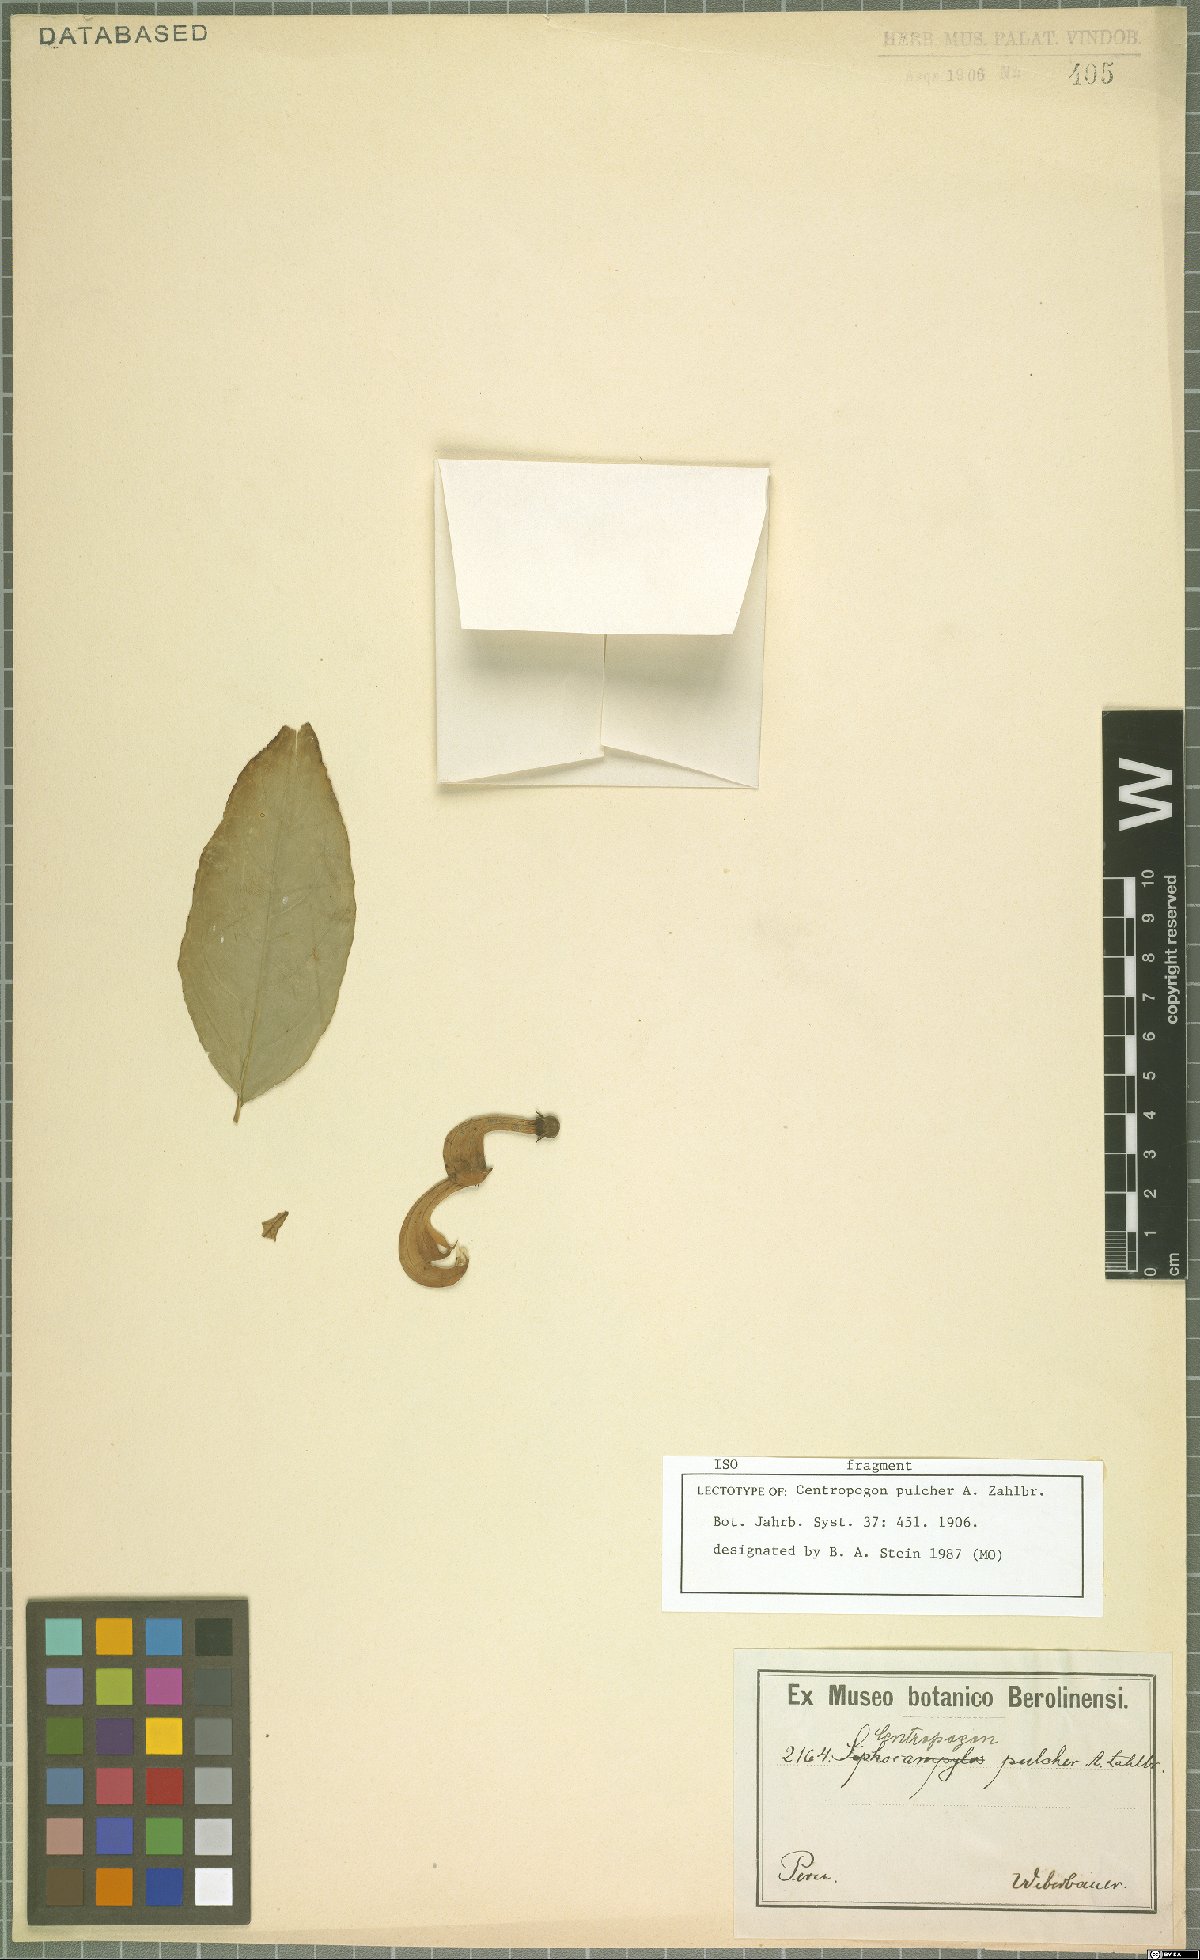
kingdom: Plantae
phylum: Tracheophyta
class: Magnoliopsida
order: Asterales
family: Campanulaceae
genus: Centropogon
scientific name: Centropogon pulcher
